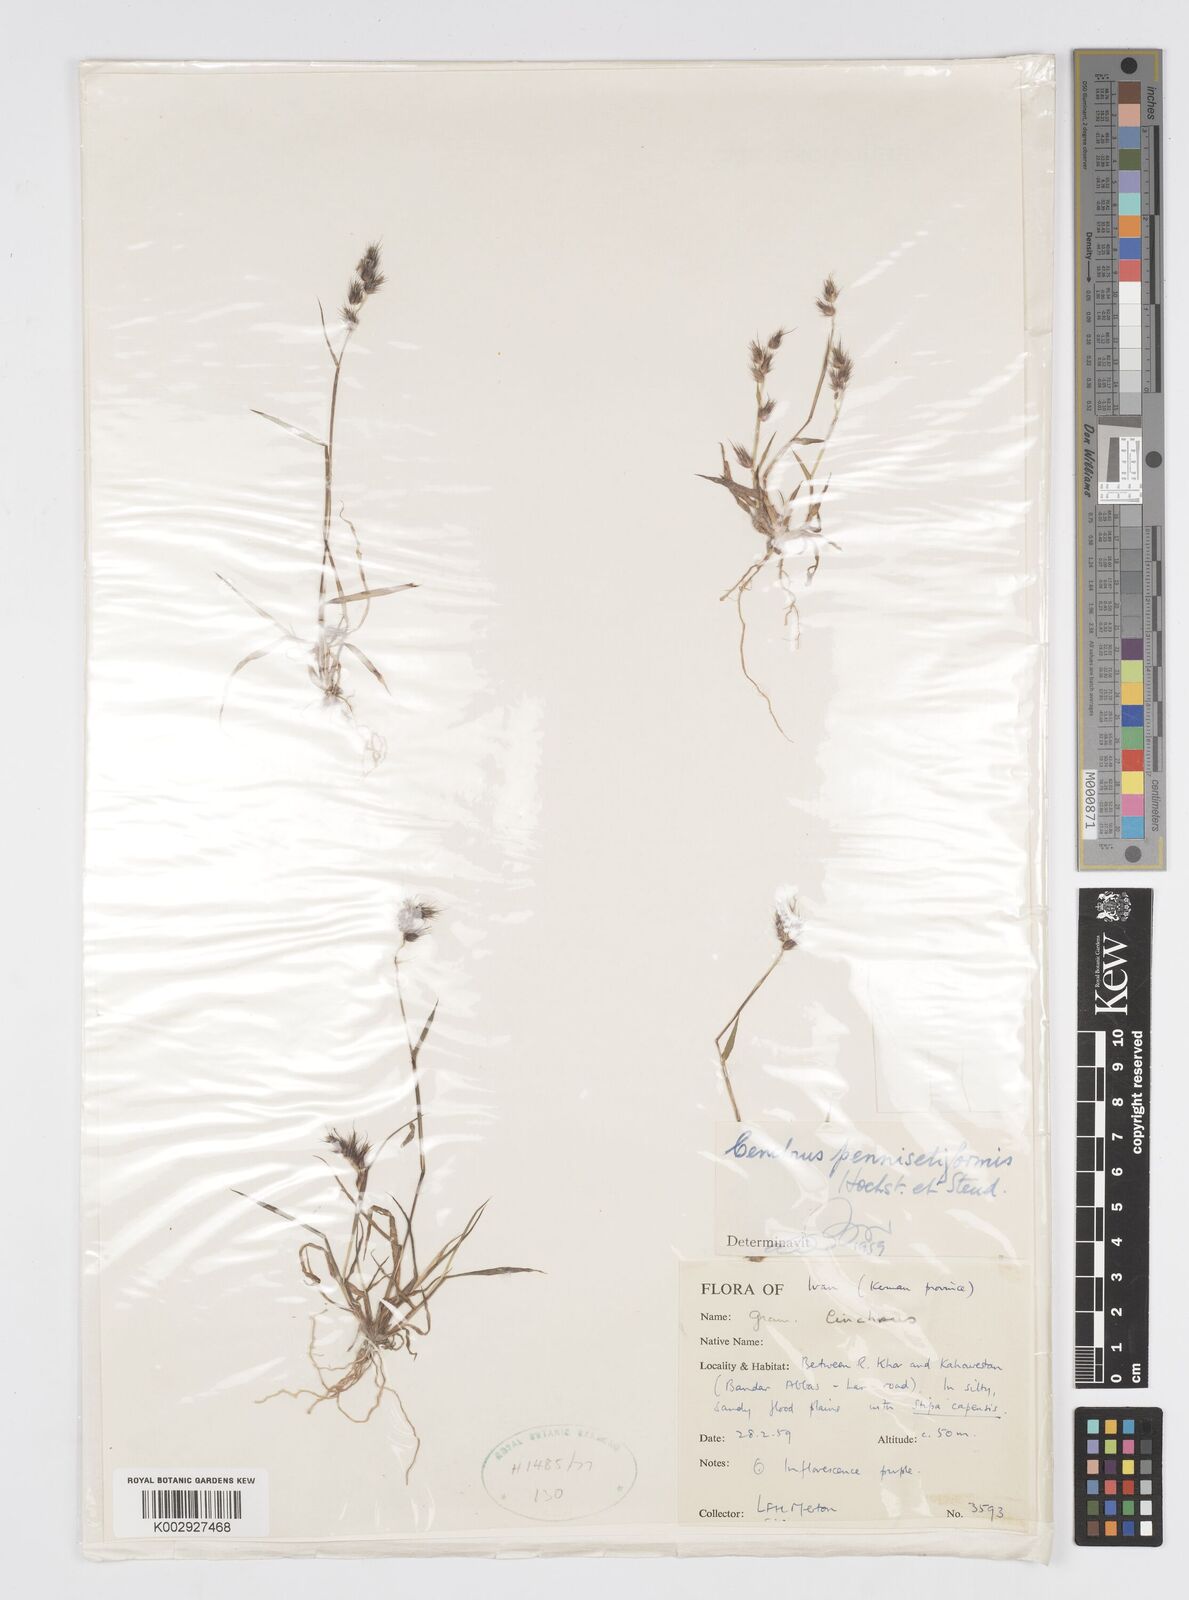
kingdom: Plantae
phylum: Tracheophyta
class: Liliopsida
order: Poales
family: Poaceae
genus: Cenchrus
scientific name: Cenchrus pennisetiformis
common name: Cloncurry
